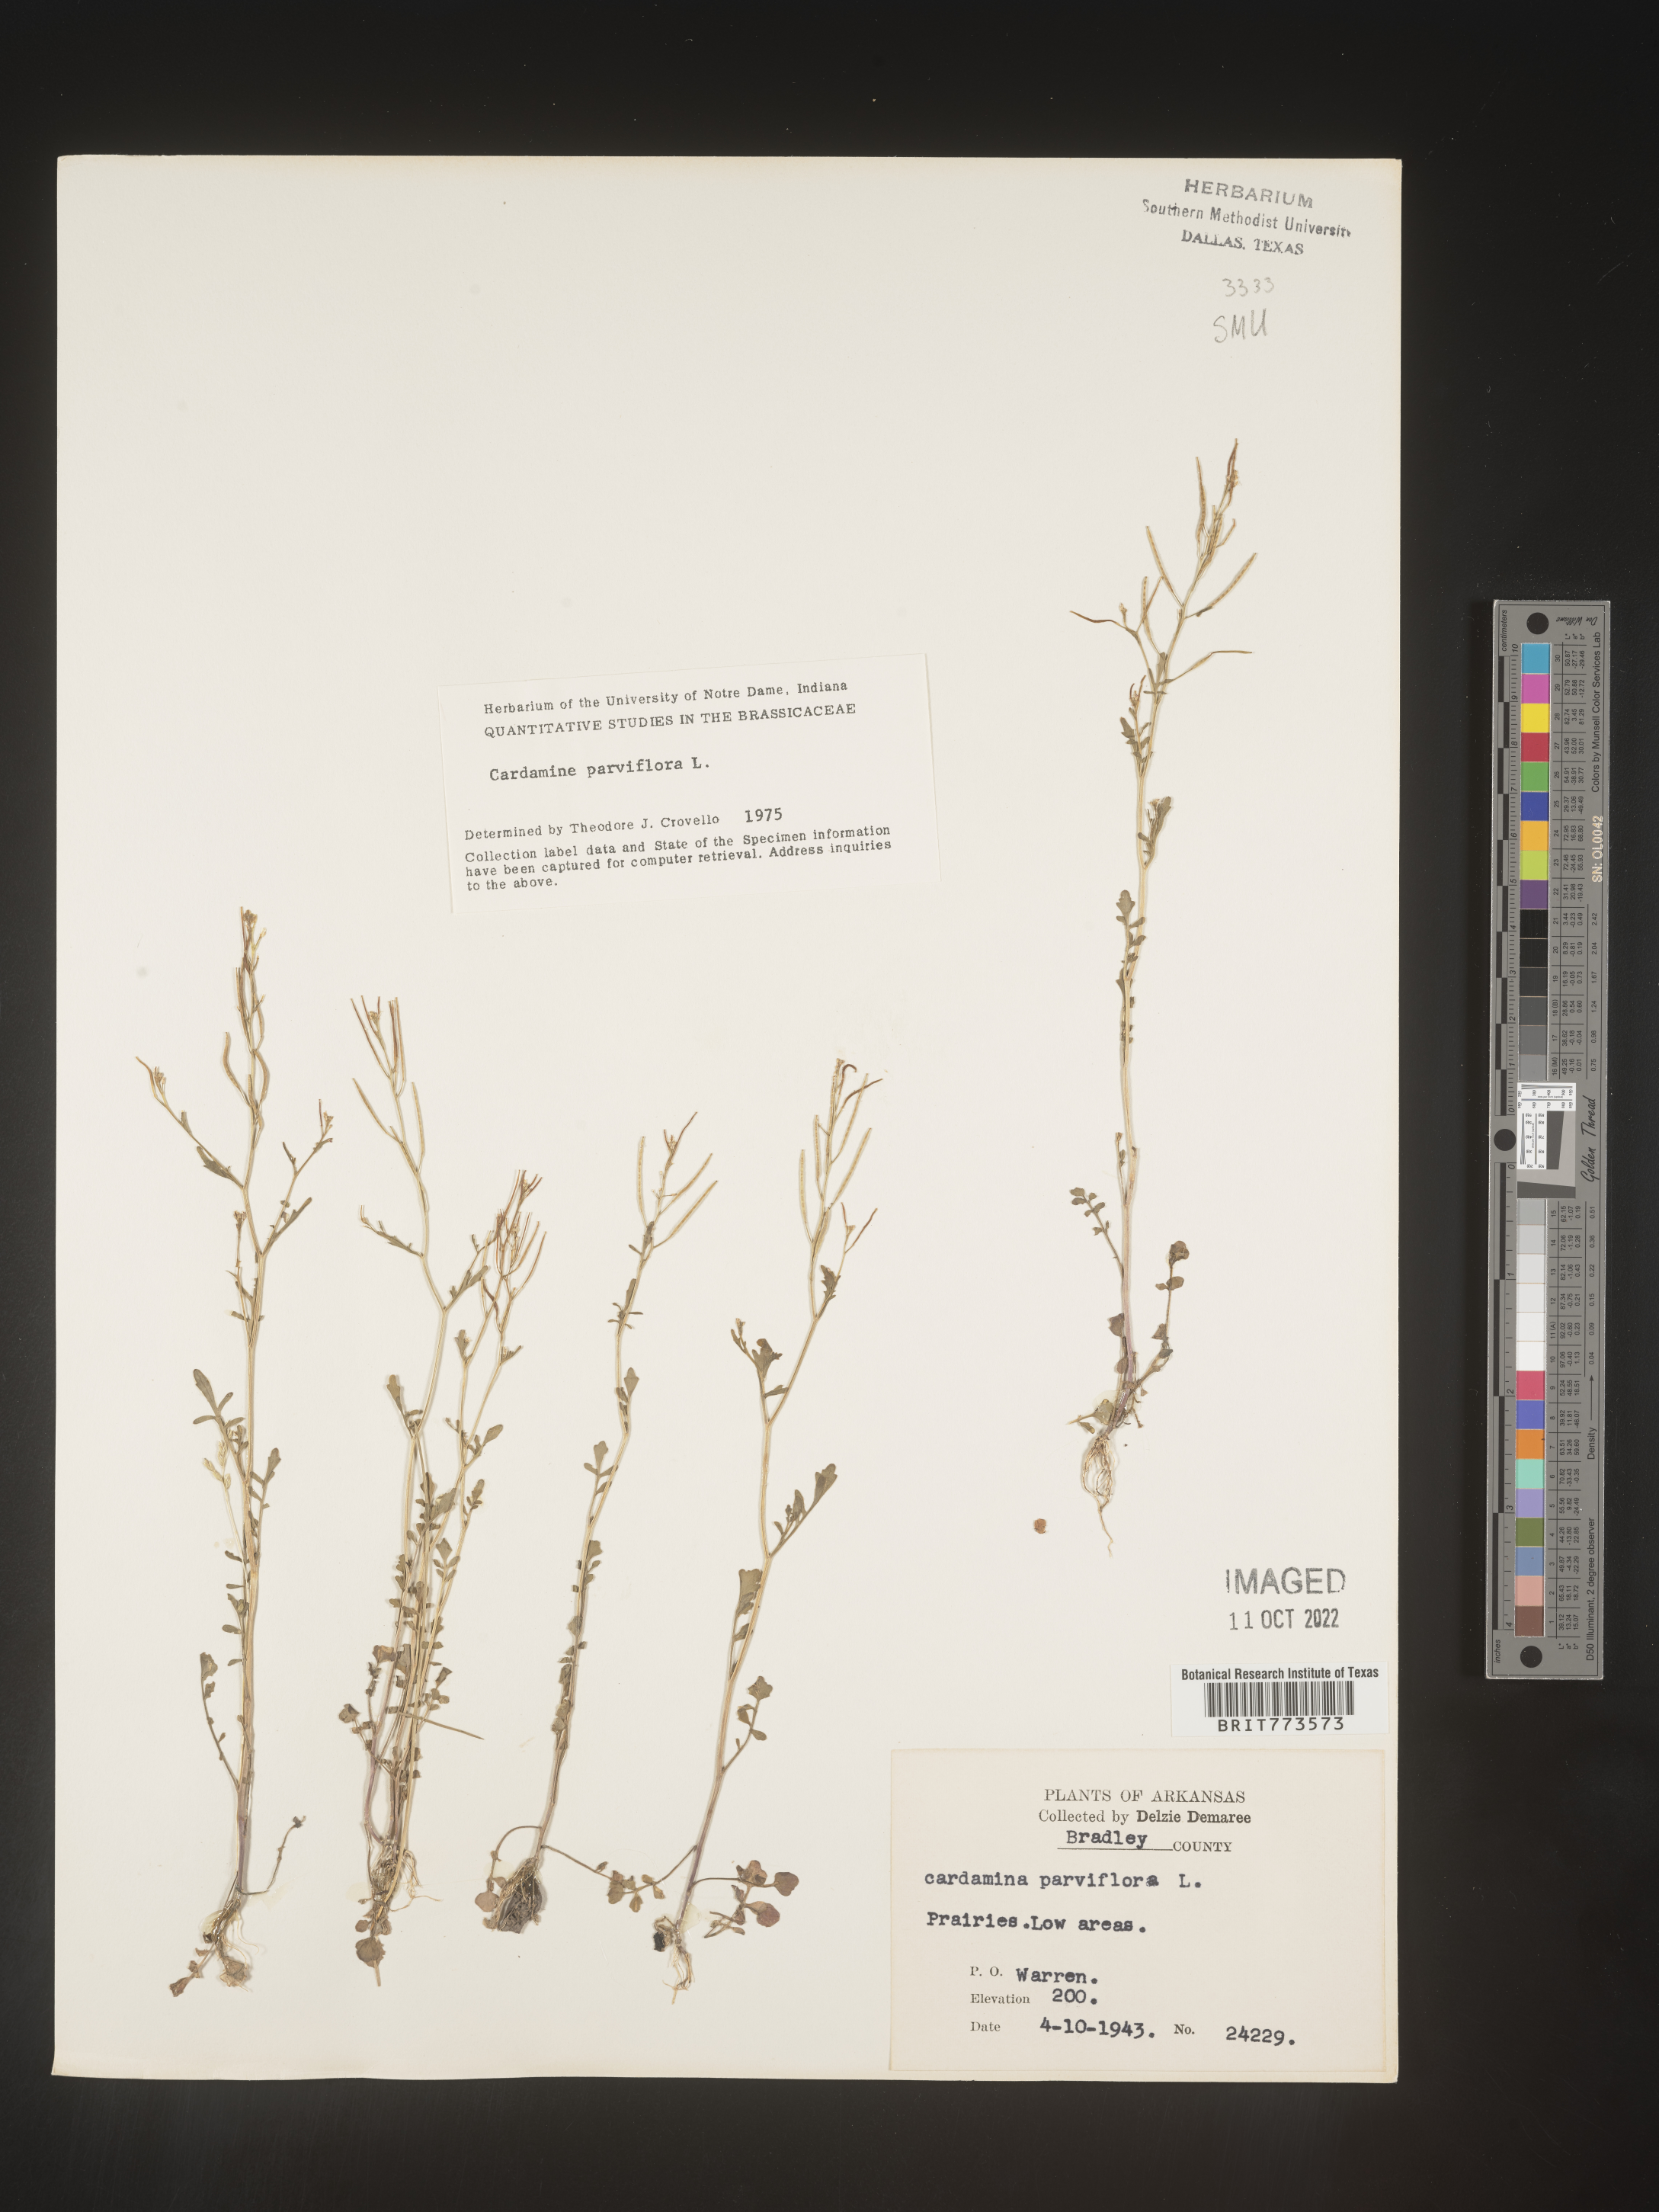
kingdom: Plantae
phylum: Tracheophyta
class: Magnoliopsida
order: Brassicales
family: Brassicaceae
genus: Cardamine
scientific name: Cardamine parviflora
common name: Sand bittercress
